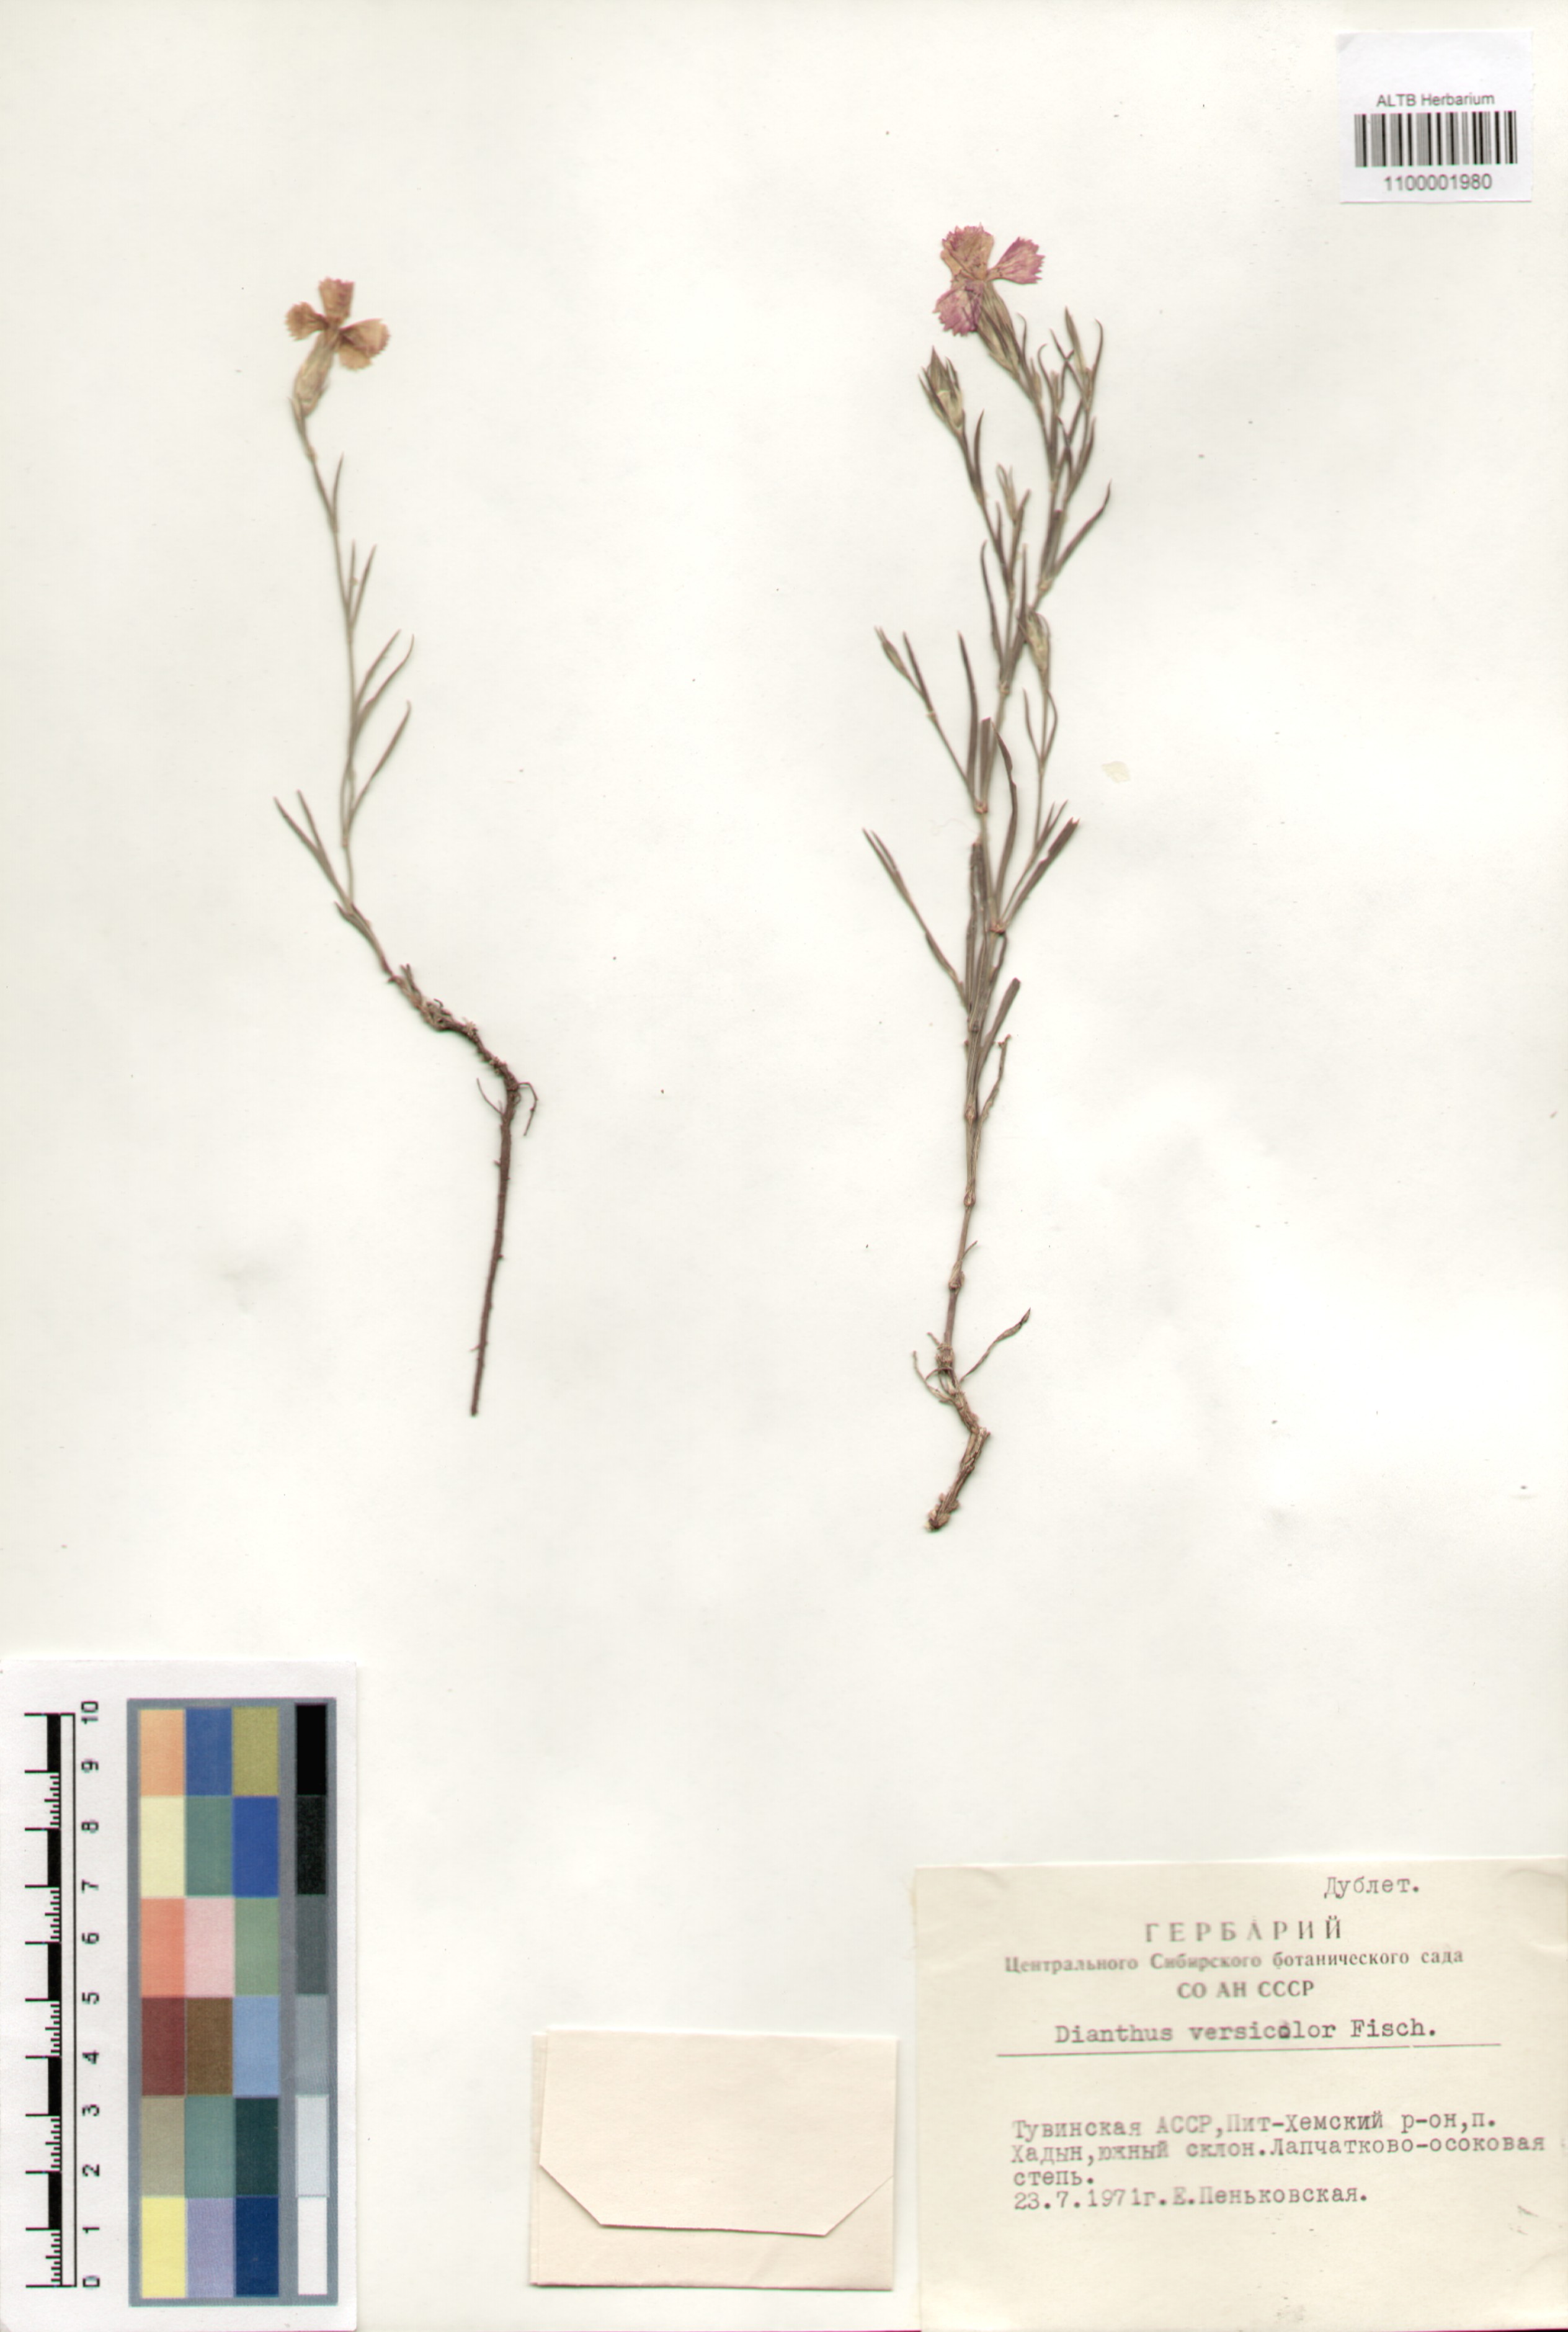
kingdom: Plantae
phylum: Tracheophyta
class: Magnoliopsida
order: Caryophyllales
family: Caryophyllaceae
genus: Dianthus
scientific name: Dianthus chinensis
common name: Rainbow pink
